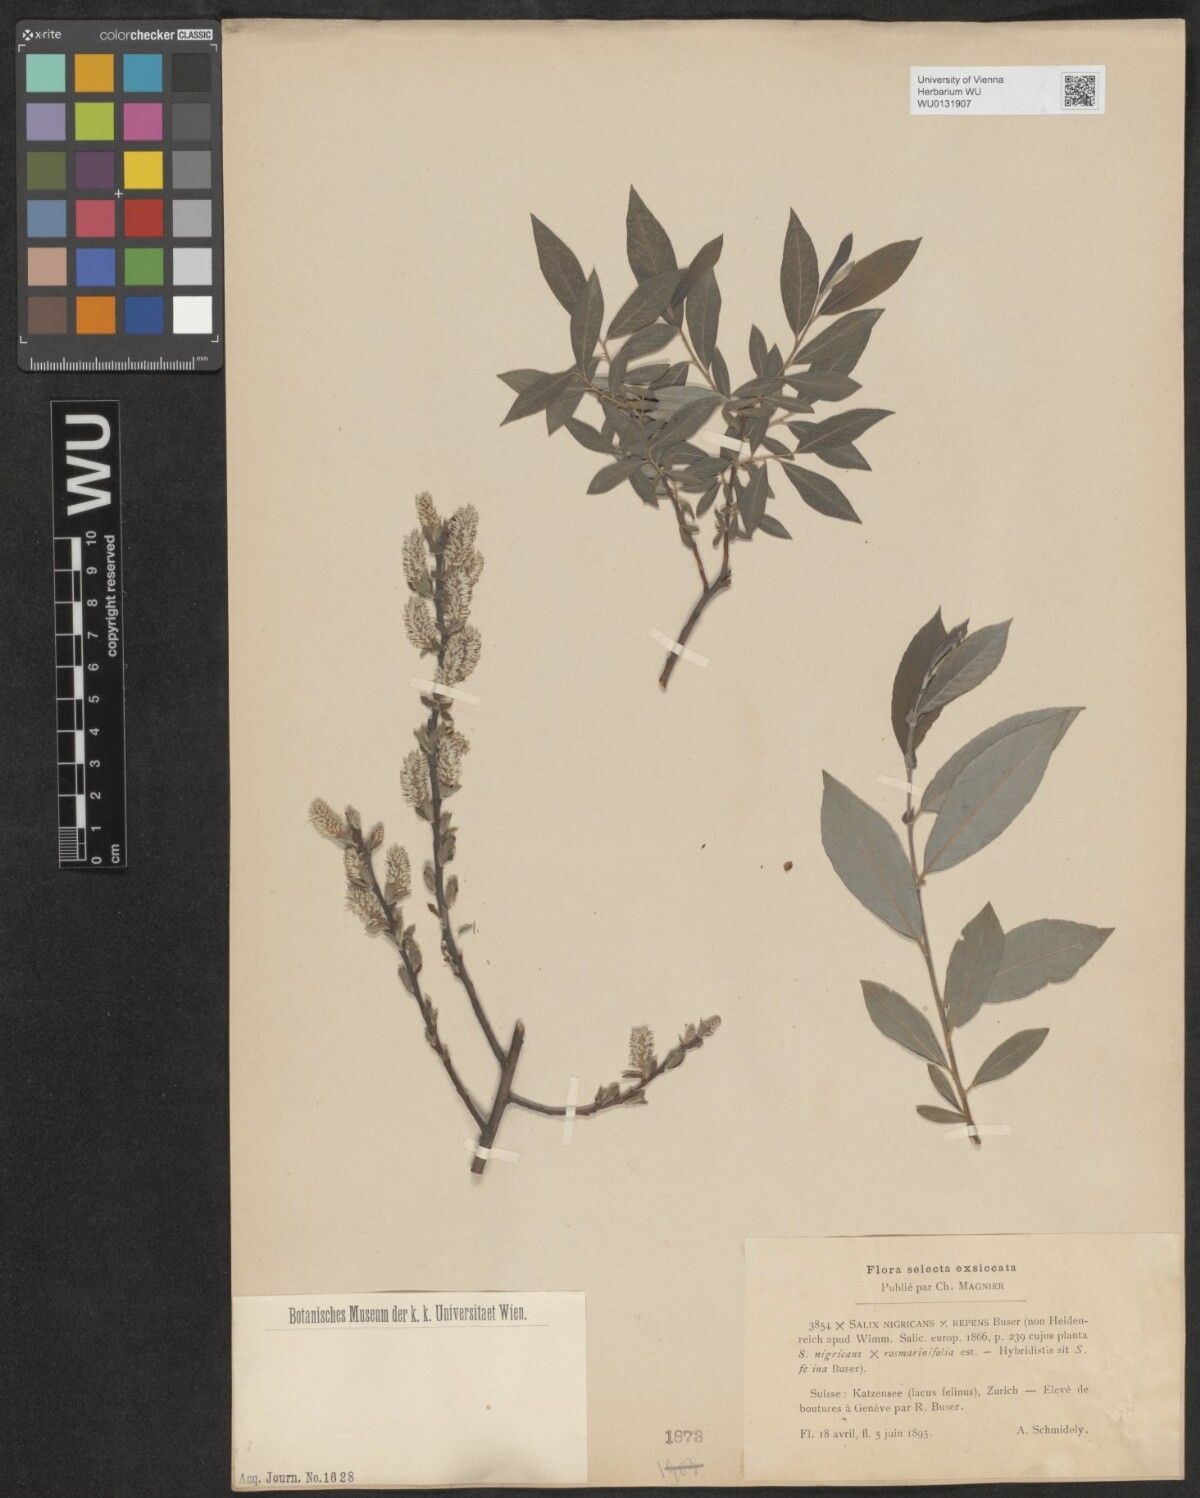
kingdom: Plantae
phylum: Tracheophyta
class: Magnoliopsida
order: Malpighiales
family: Salicaceae
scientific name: Salicaceae
